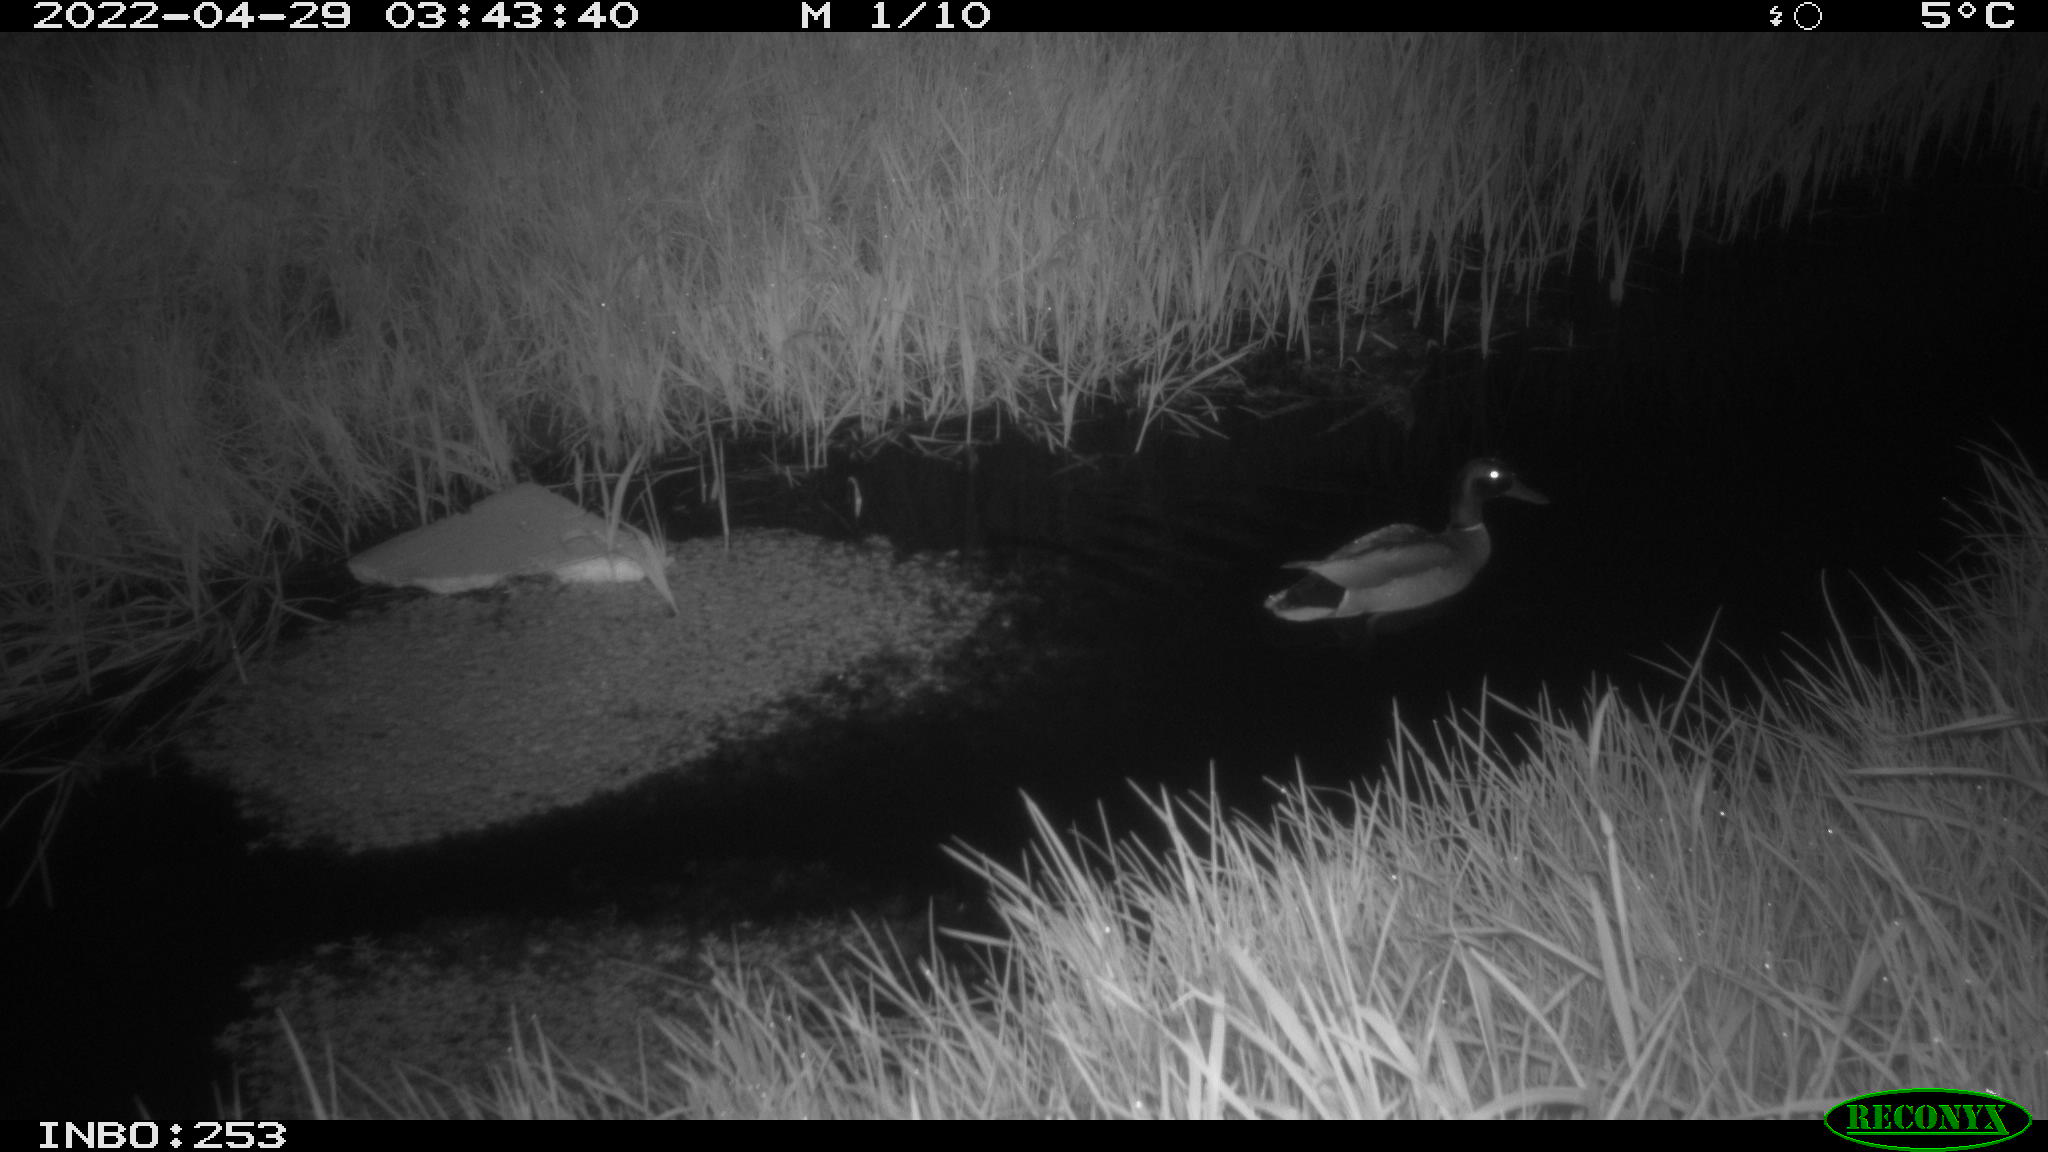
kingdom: Animalia
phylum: Chordata
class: Aves
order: Anseriformes
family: Anatidae
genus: Anas
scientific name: Anas platyrhynchos
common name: Mallard
